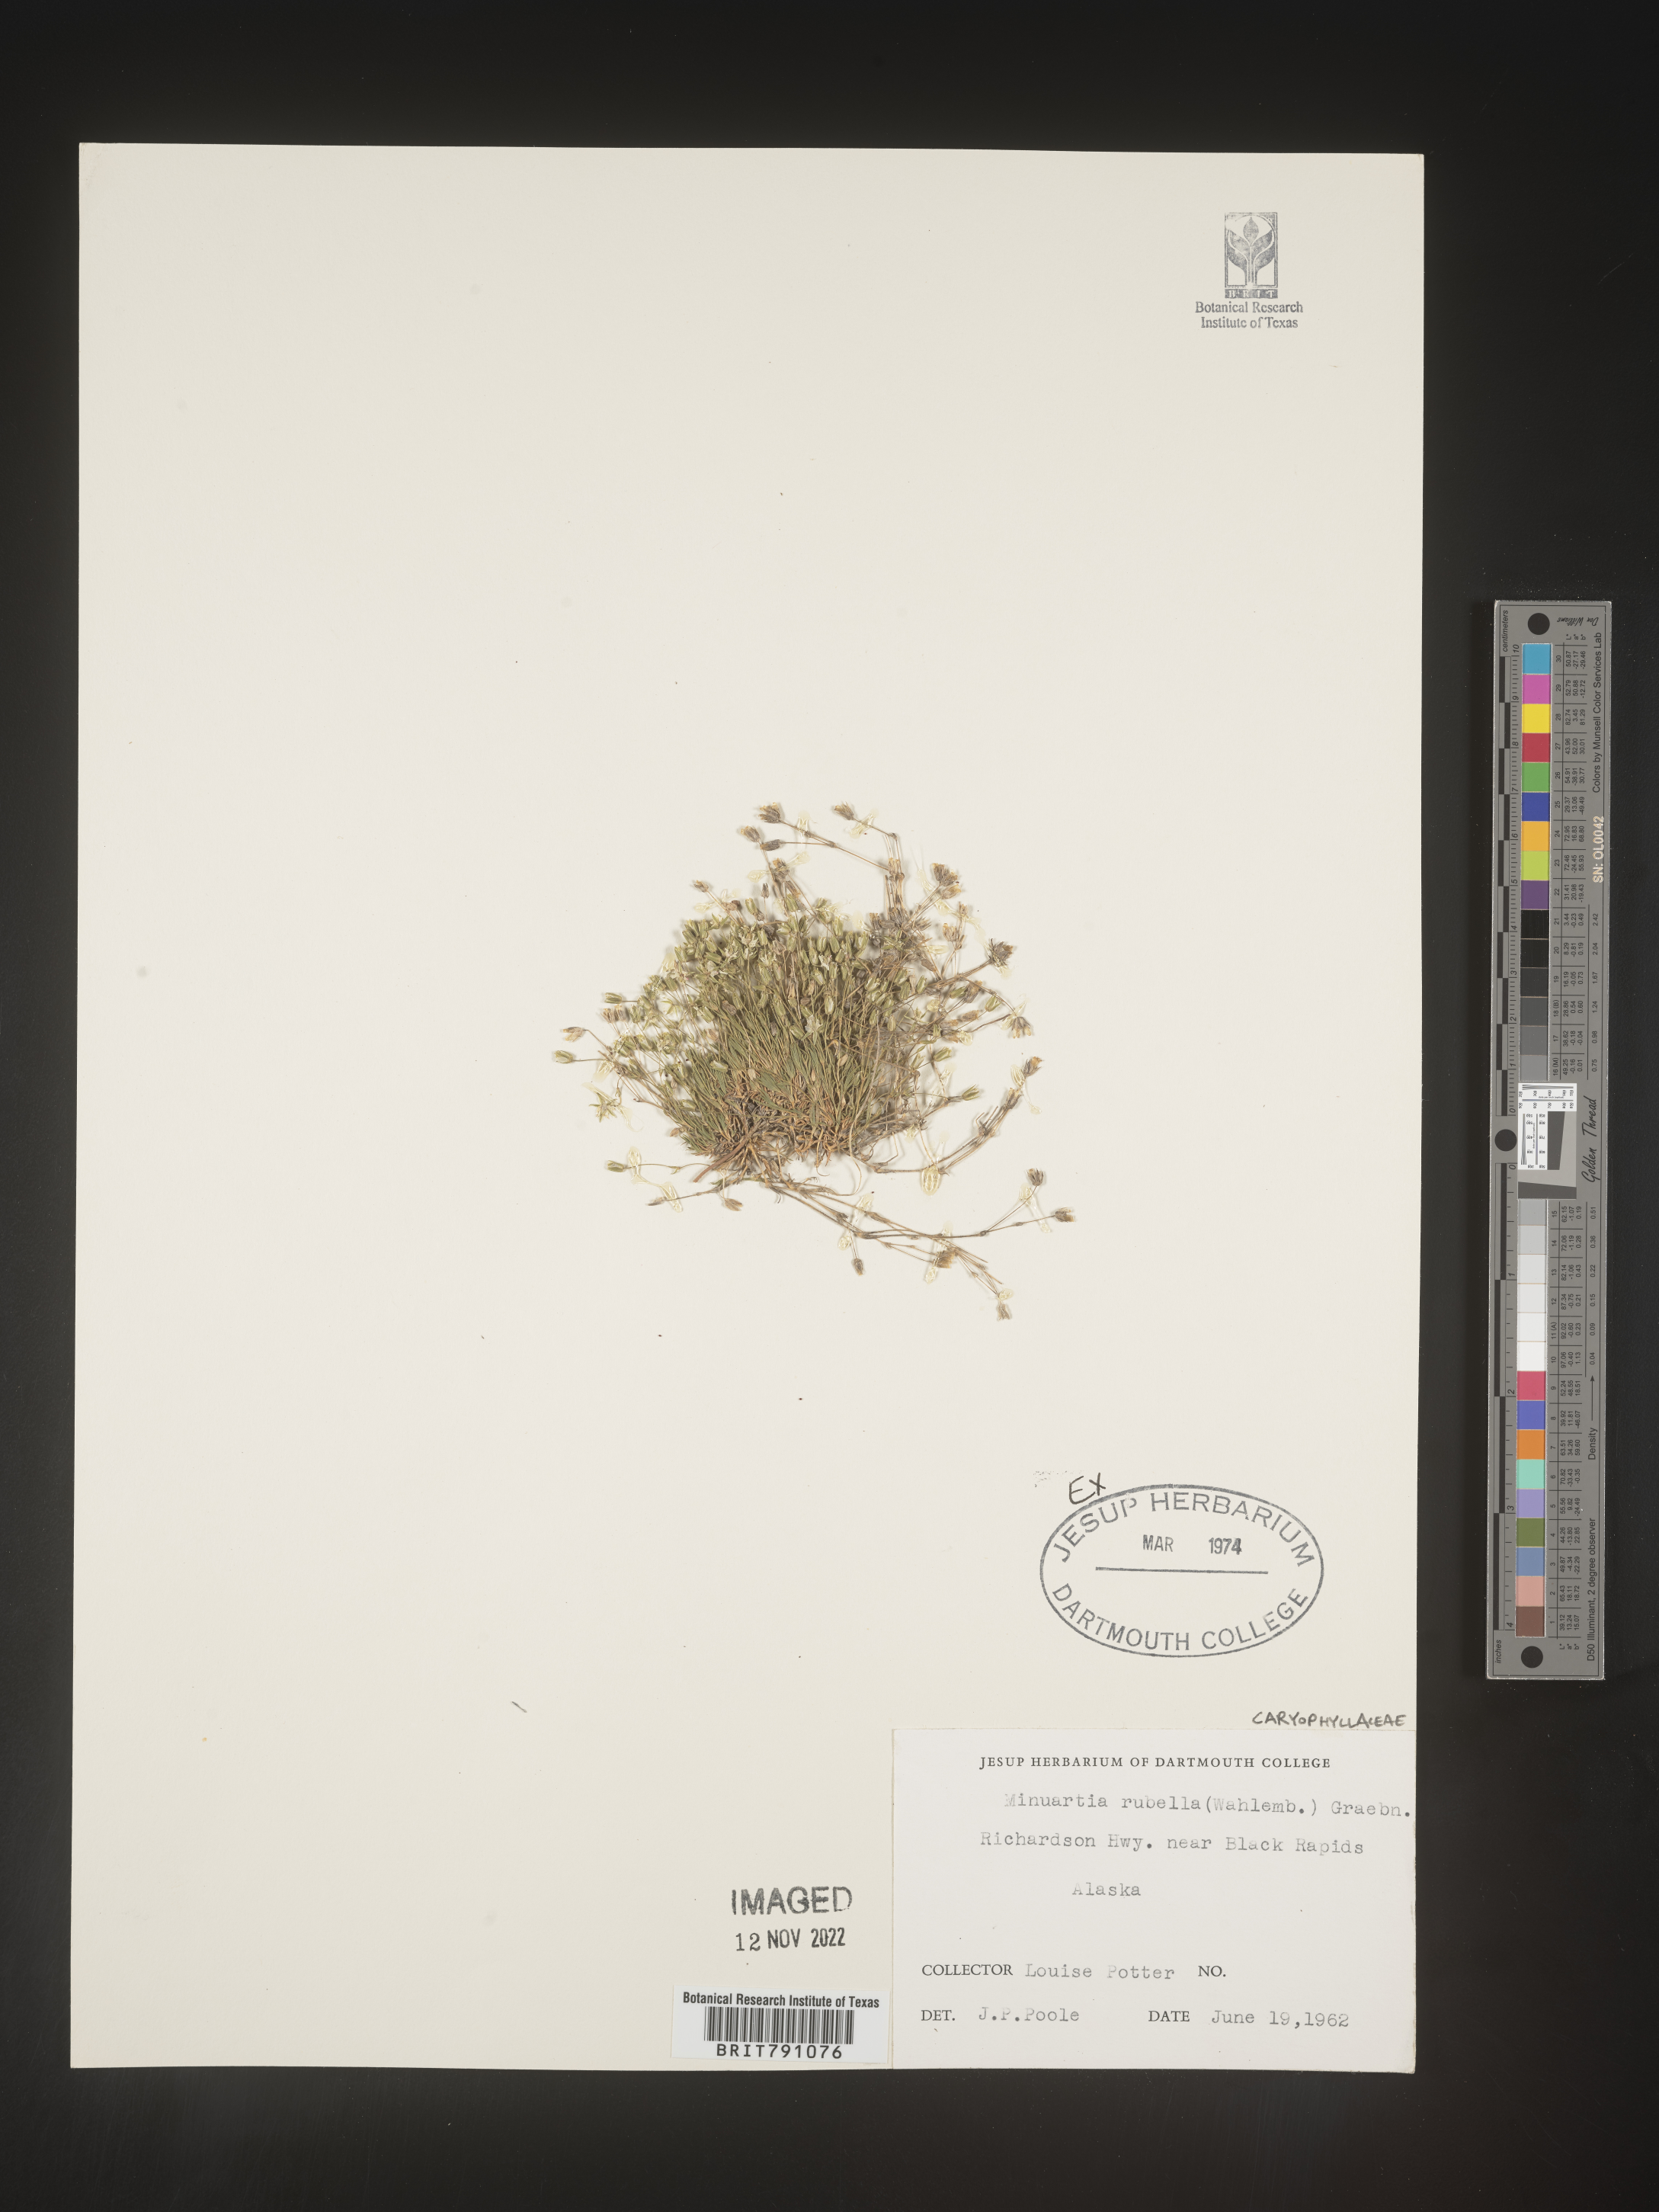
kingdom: Plantae
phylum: Tracheophyta
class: Magnoliopsida
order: Caryophyllales
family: Caryophyllaceae
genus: Minuartia
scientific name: Minuartia
